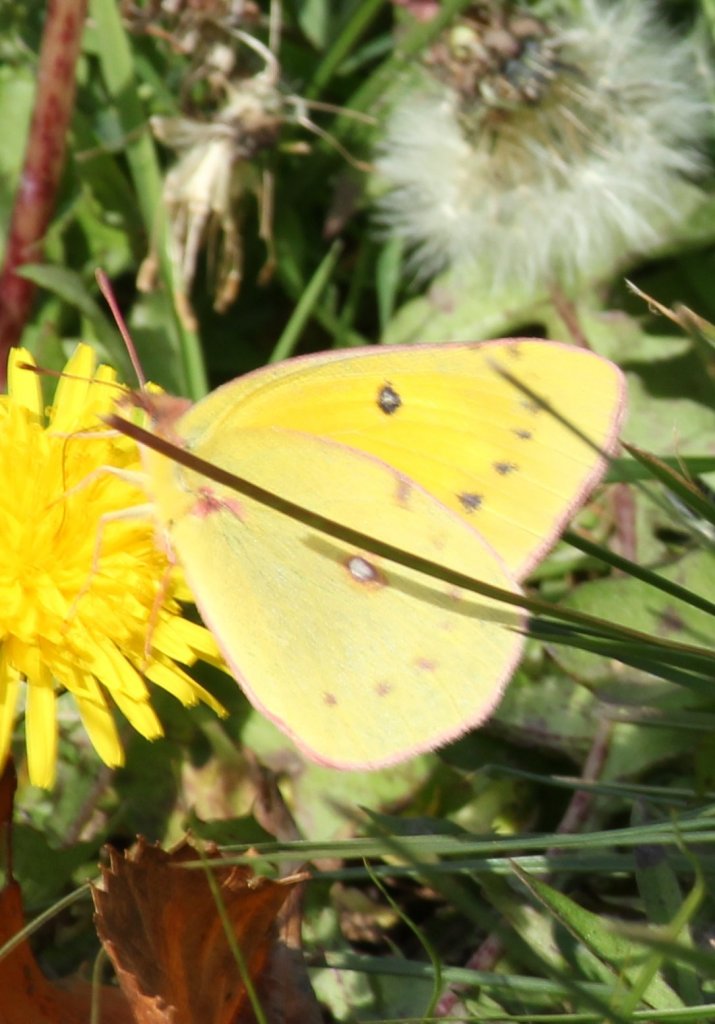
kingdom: Animalia
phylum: Arthropoda
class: Insecta
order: Lepidoptera
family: Pieridae
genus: Colias
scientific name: Colias eurytheme
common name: Orange Sulphur
